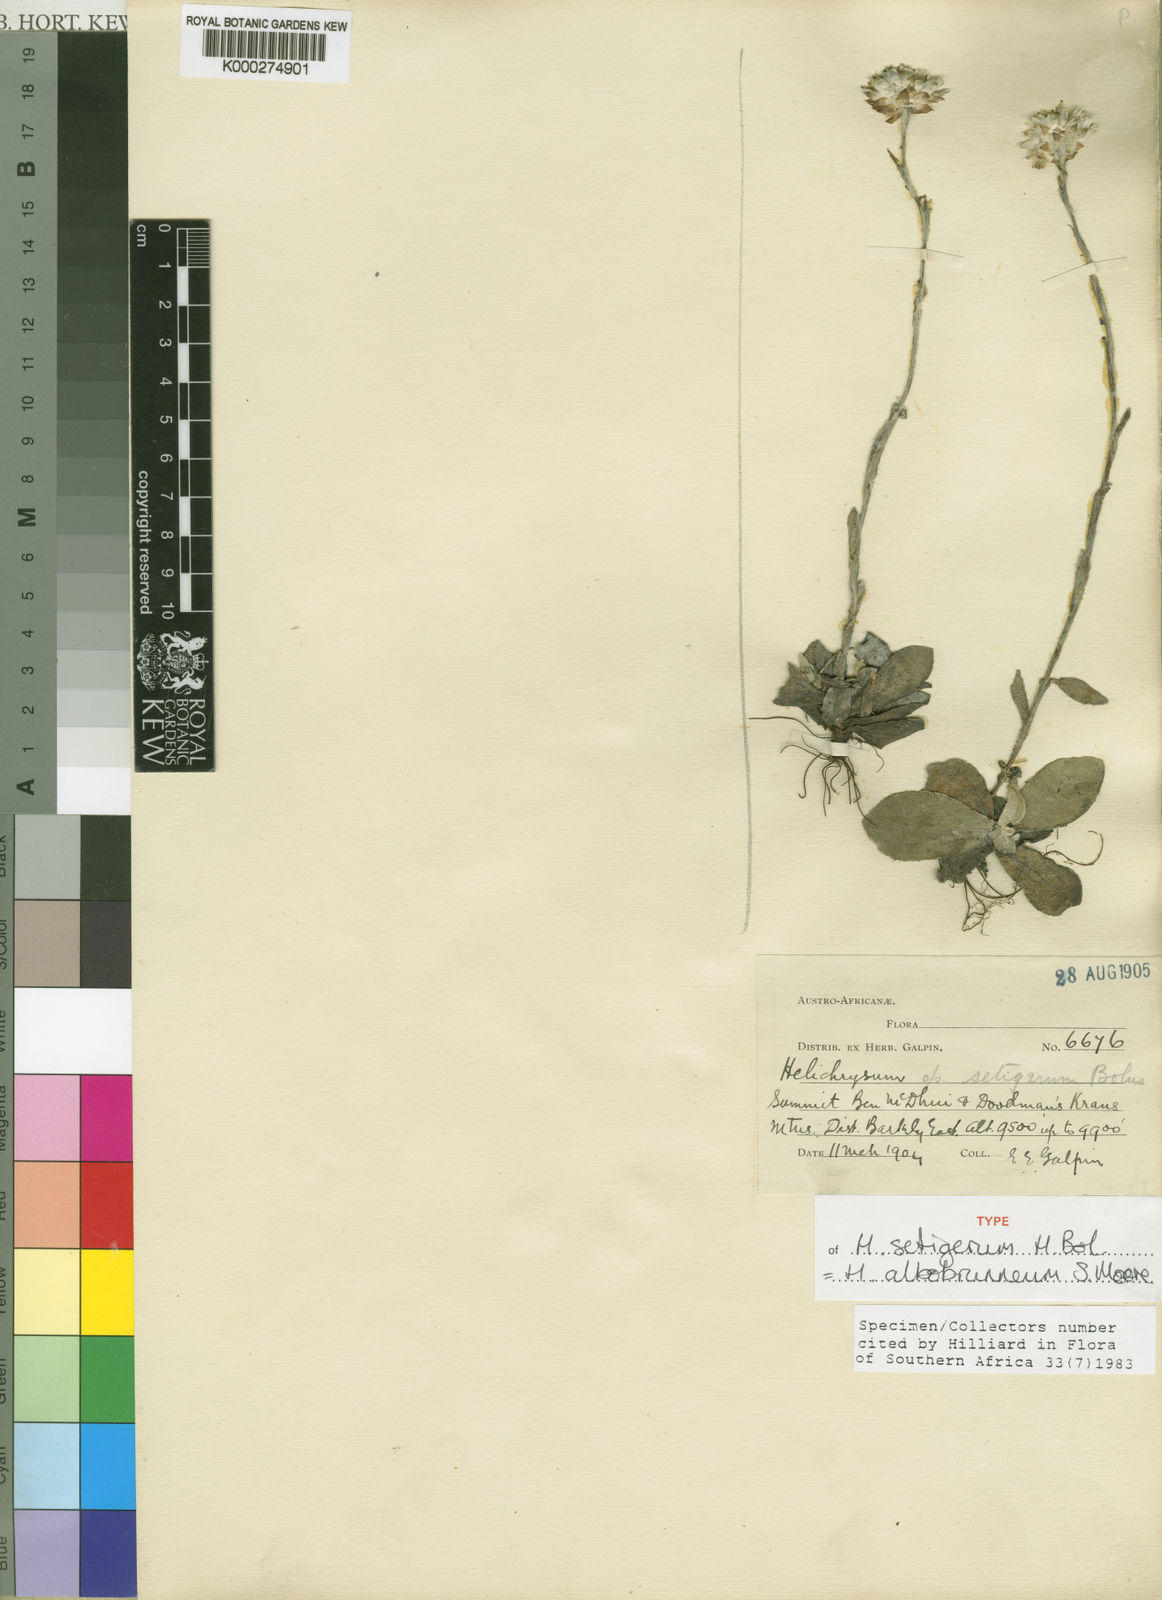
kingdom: Plantae
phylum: Tracheophyta
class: Magnoliopsida
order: Asterales
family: Asteraceae
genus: Helichrysum
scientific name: Helichrysum albobrunneum
